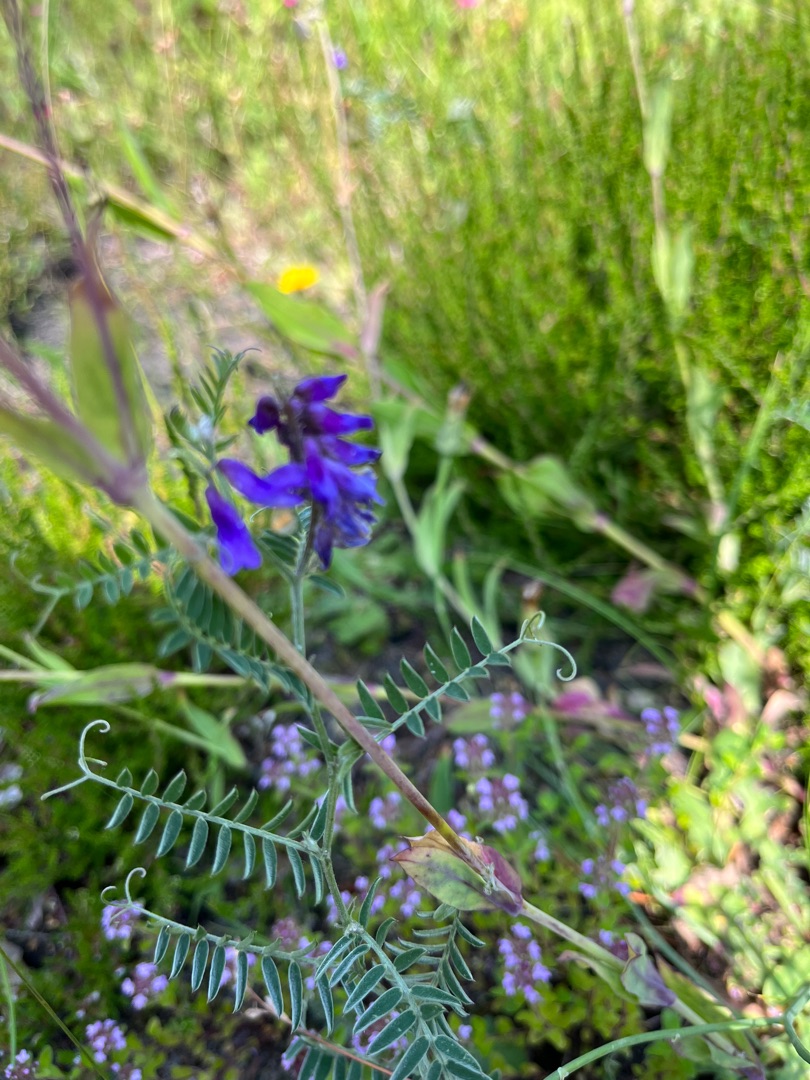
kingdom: Plantae
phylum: Tracheophyta
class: Magnoliopsida
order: Fabales
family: Fabaceae
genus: Vicia
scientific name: Vicia cracca
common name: Muse-vikke
